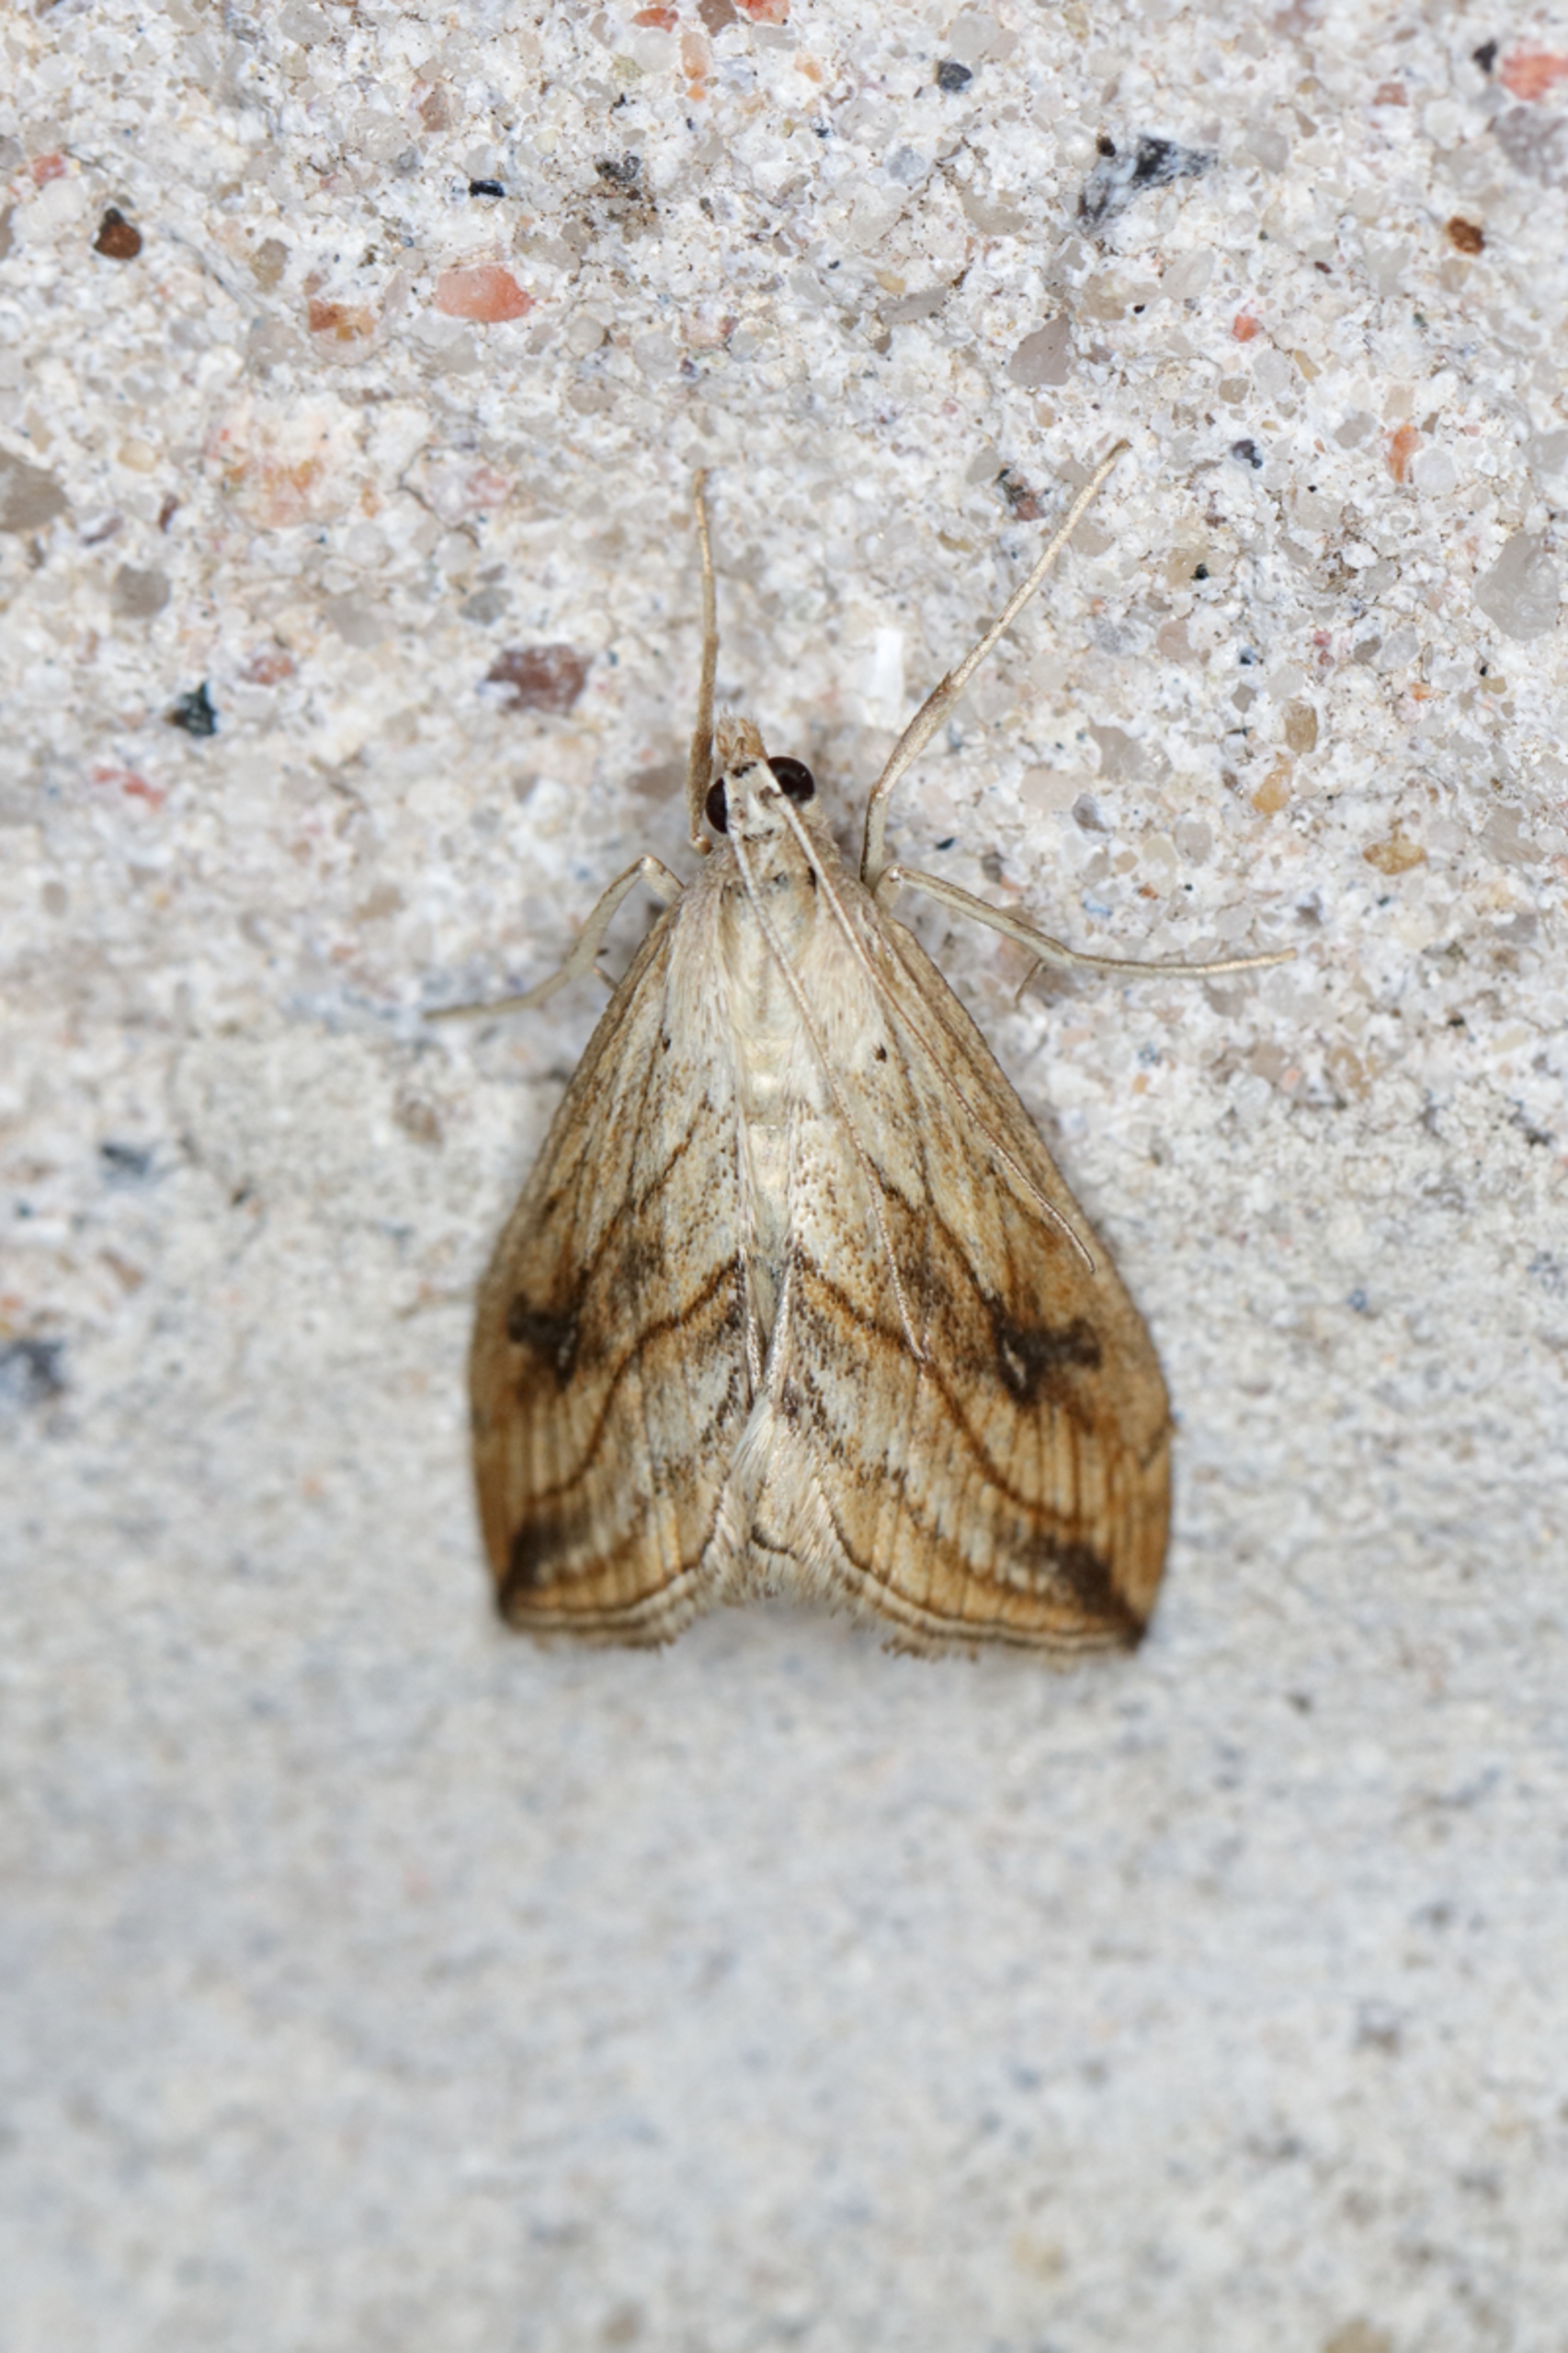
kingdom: Animalia
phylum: Arthropoda
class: Insecta
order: Lepidoptera
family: Crambidae
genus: Evergestis
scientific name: Evergestis forficalis
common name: Kålhalvmøl
